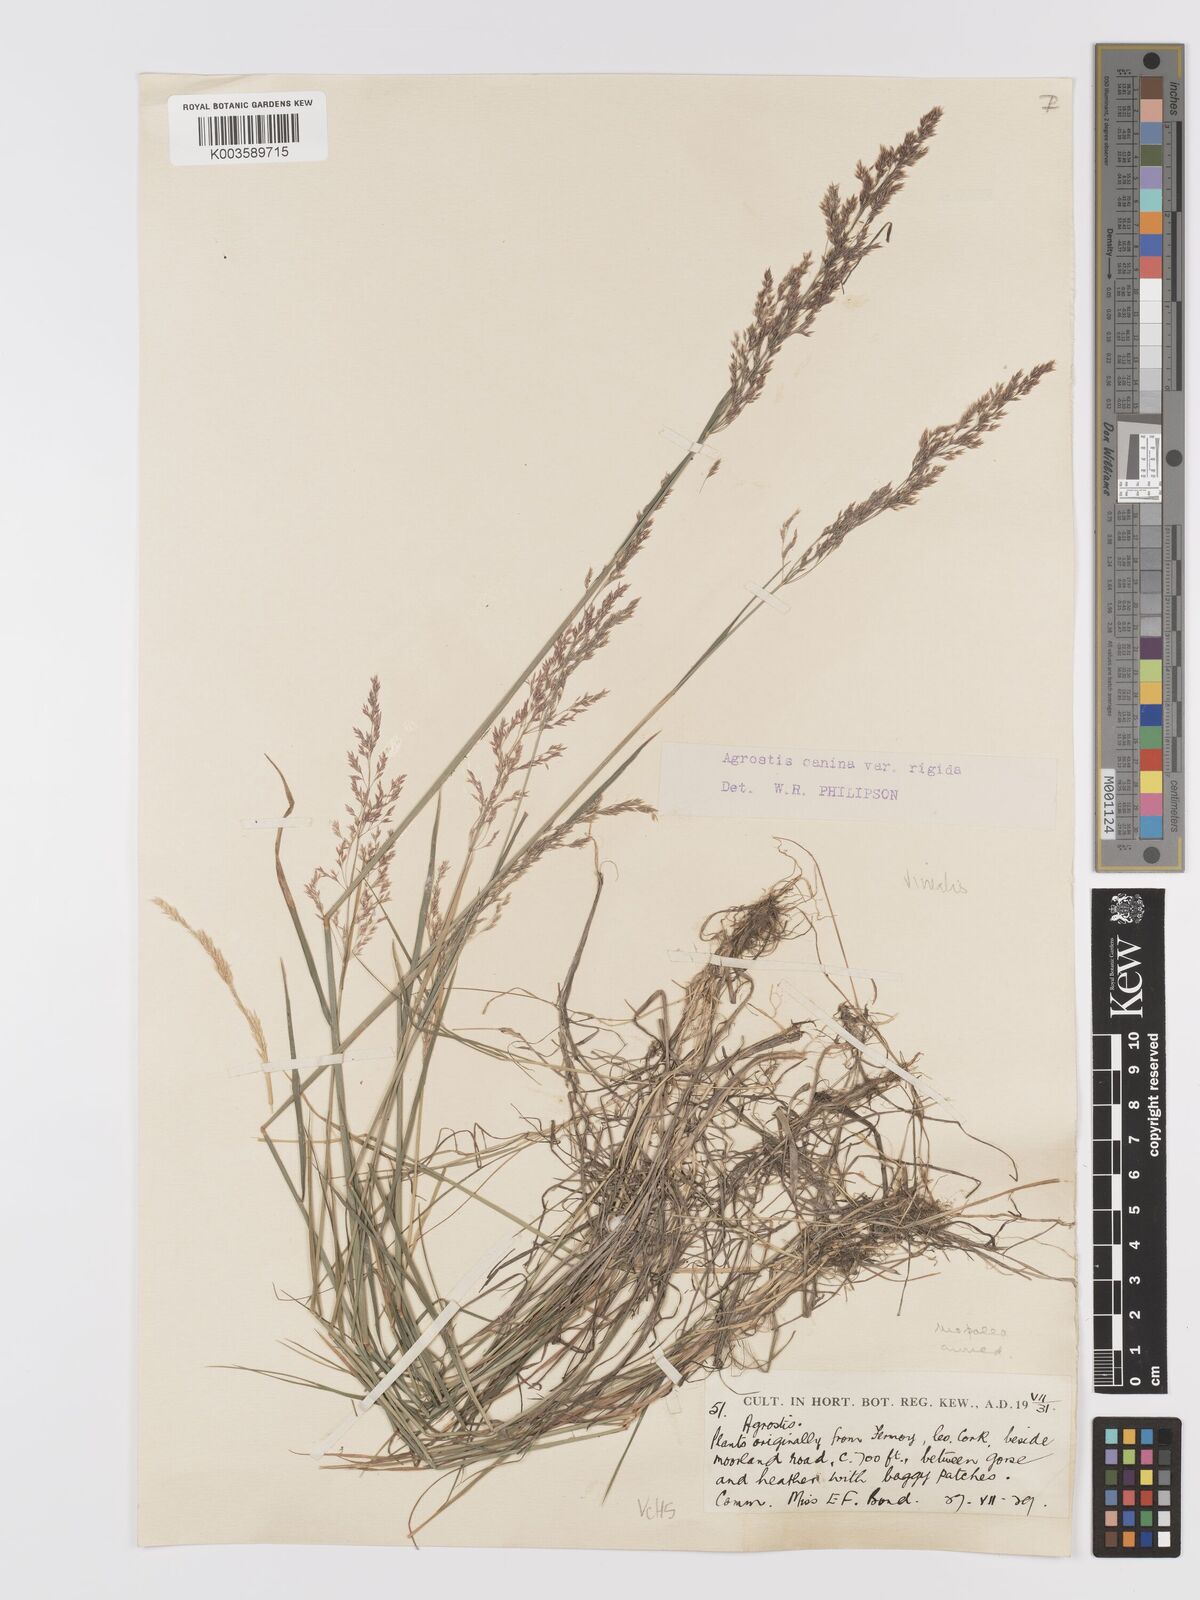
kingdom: Plantae
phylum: Tracheophyta
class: Liliopsida
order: Poales
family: Poaceae
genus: Agrostis
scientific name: Agrostis
